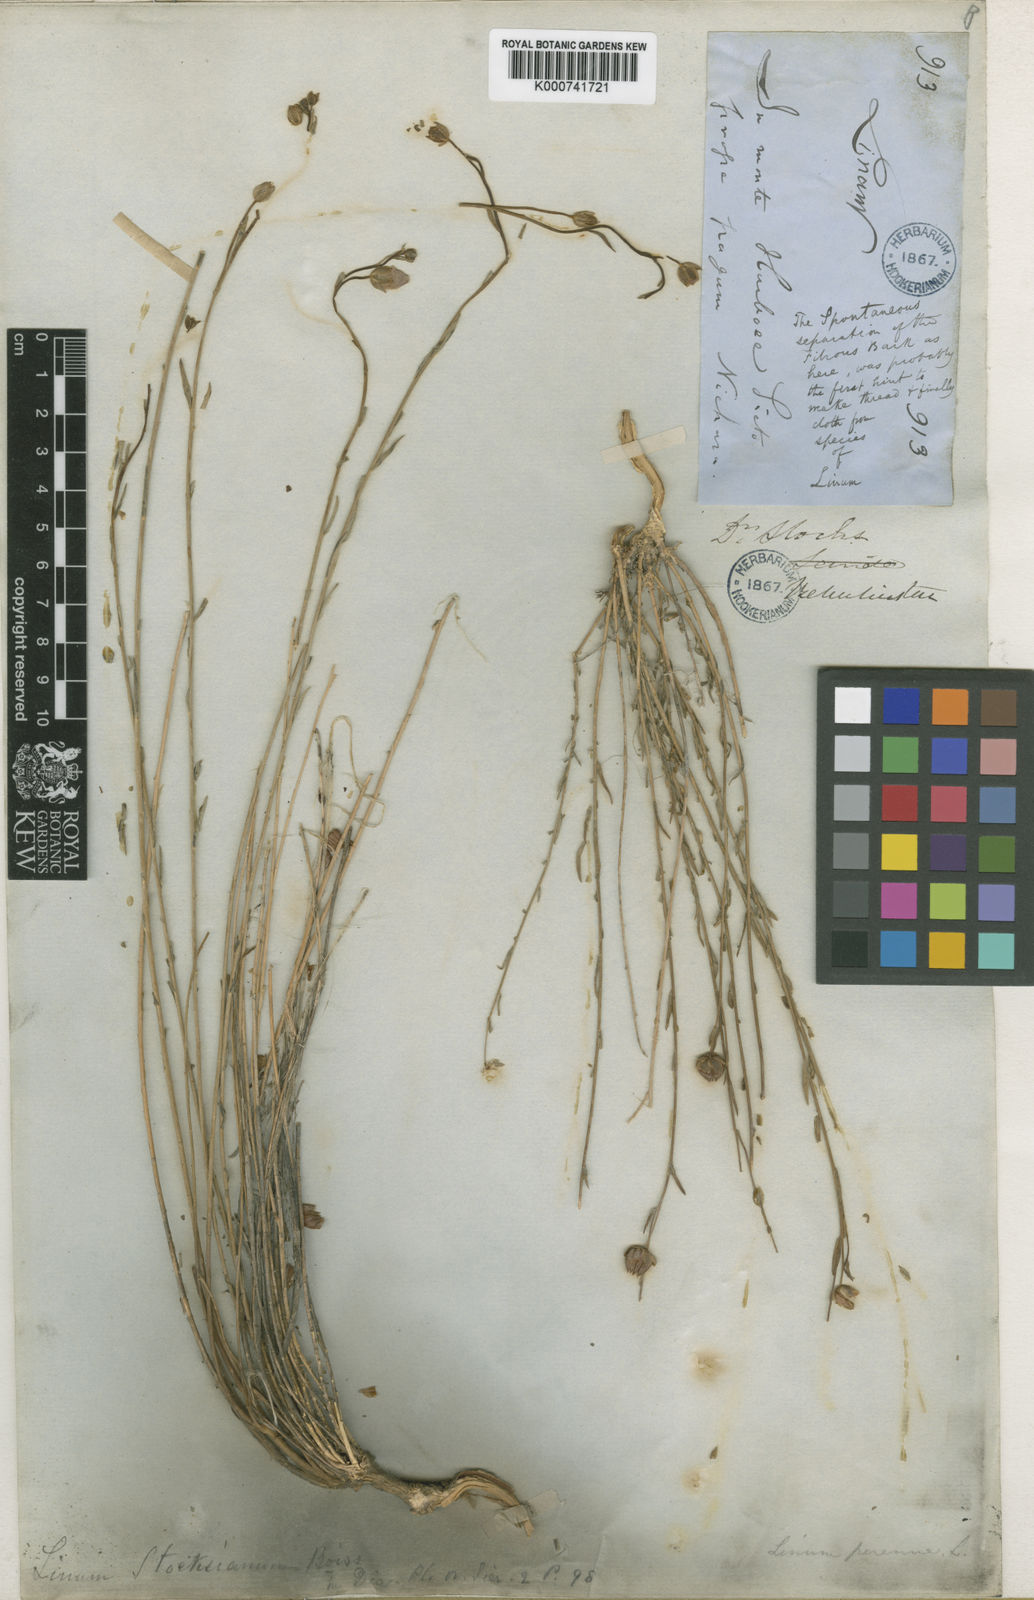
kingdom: Plantae
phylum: Tracheophyta
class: Magnoliopsida
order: Malpighiales
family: Linaceae
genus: Linum
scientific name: Linum perenne
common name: Blue flax
